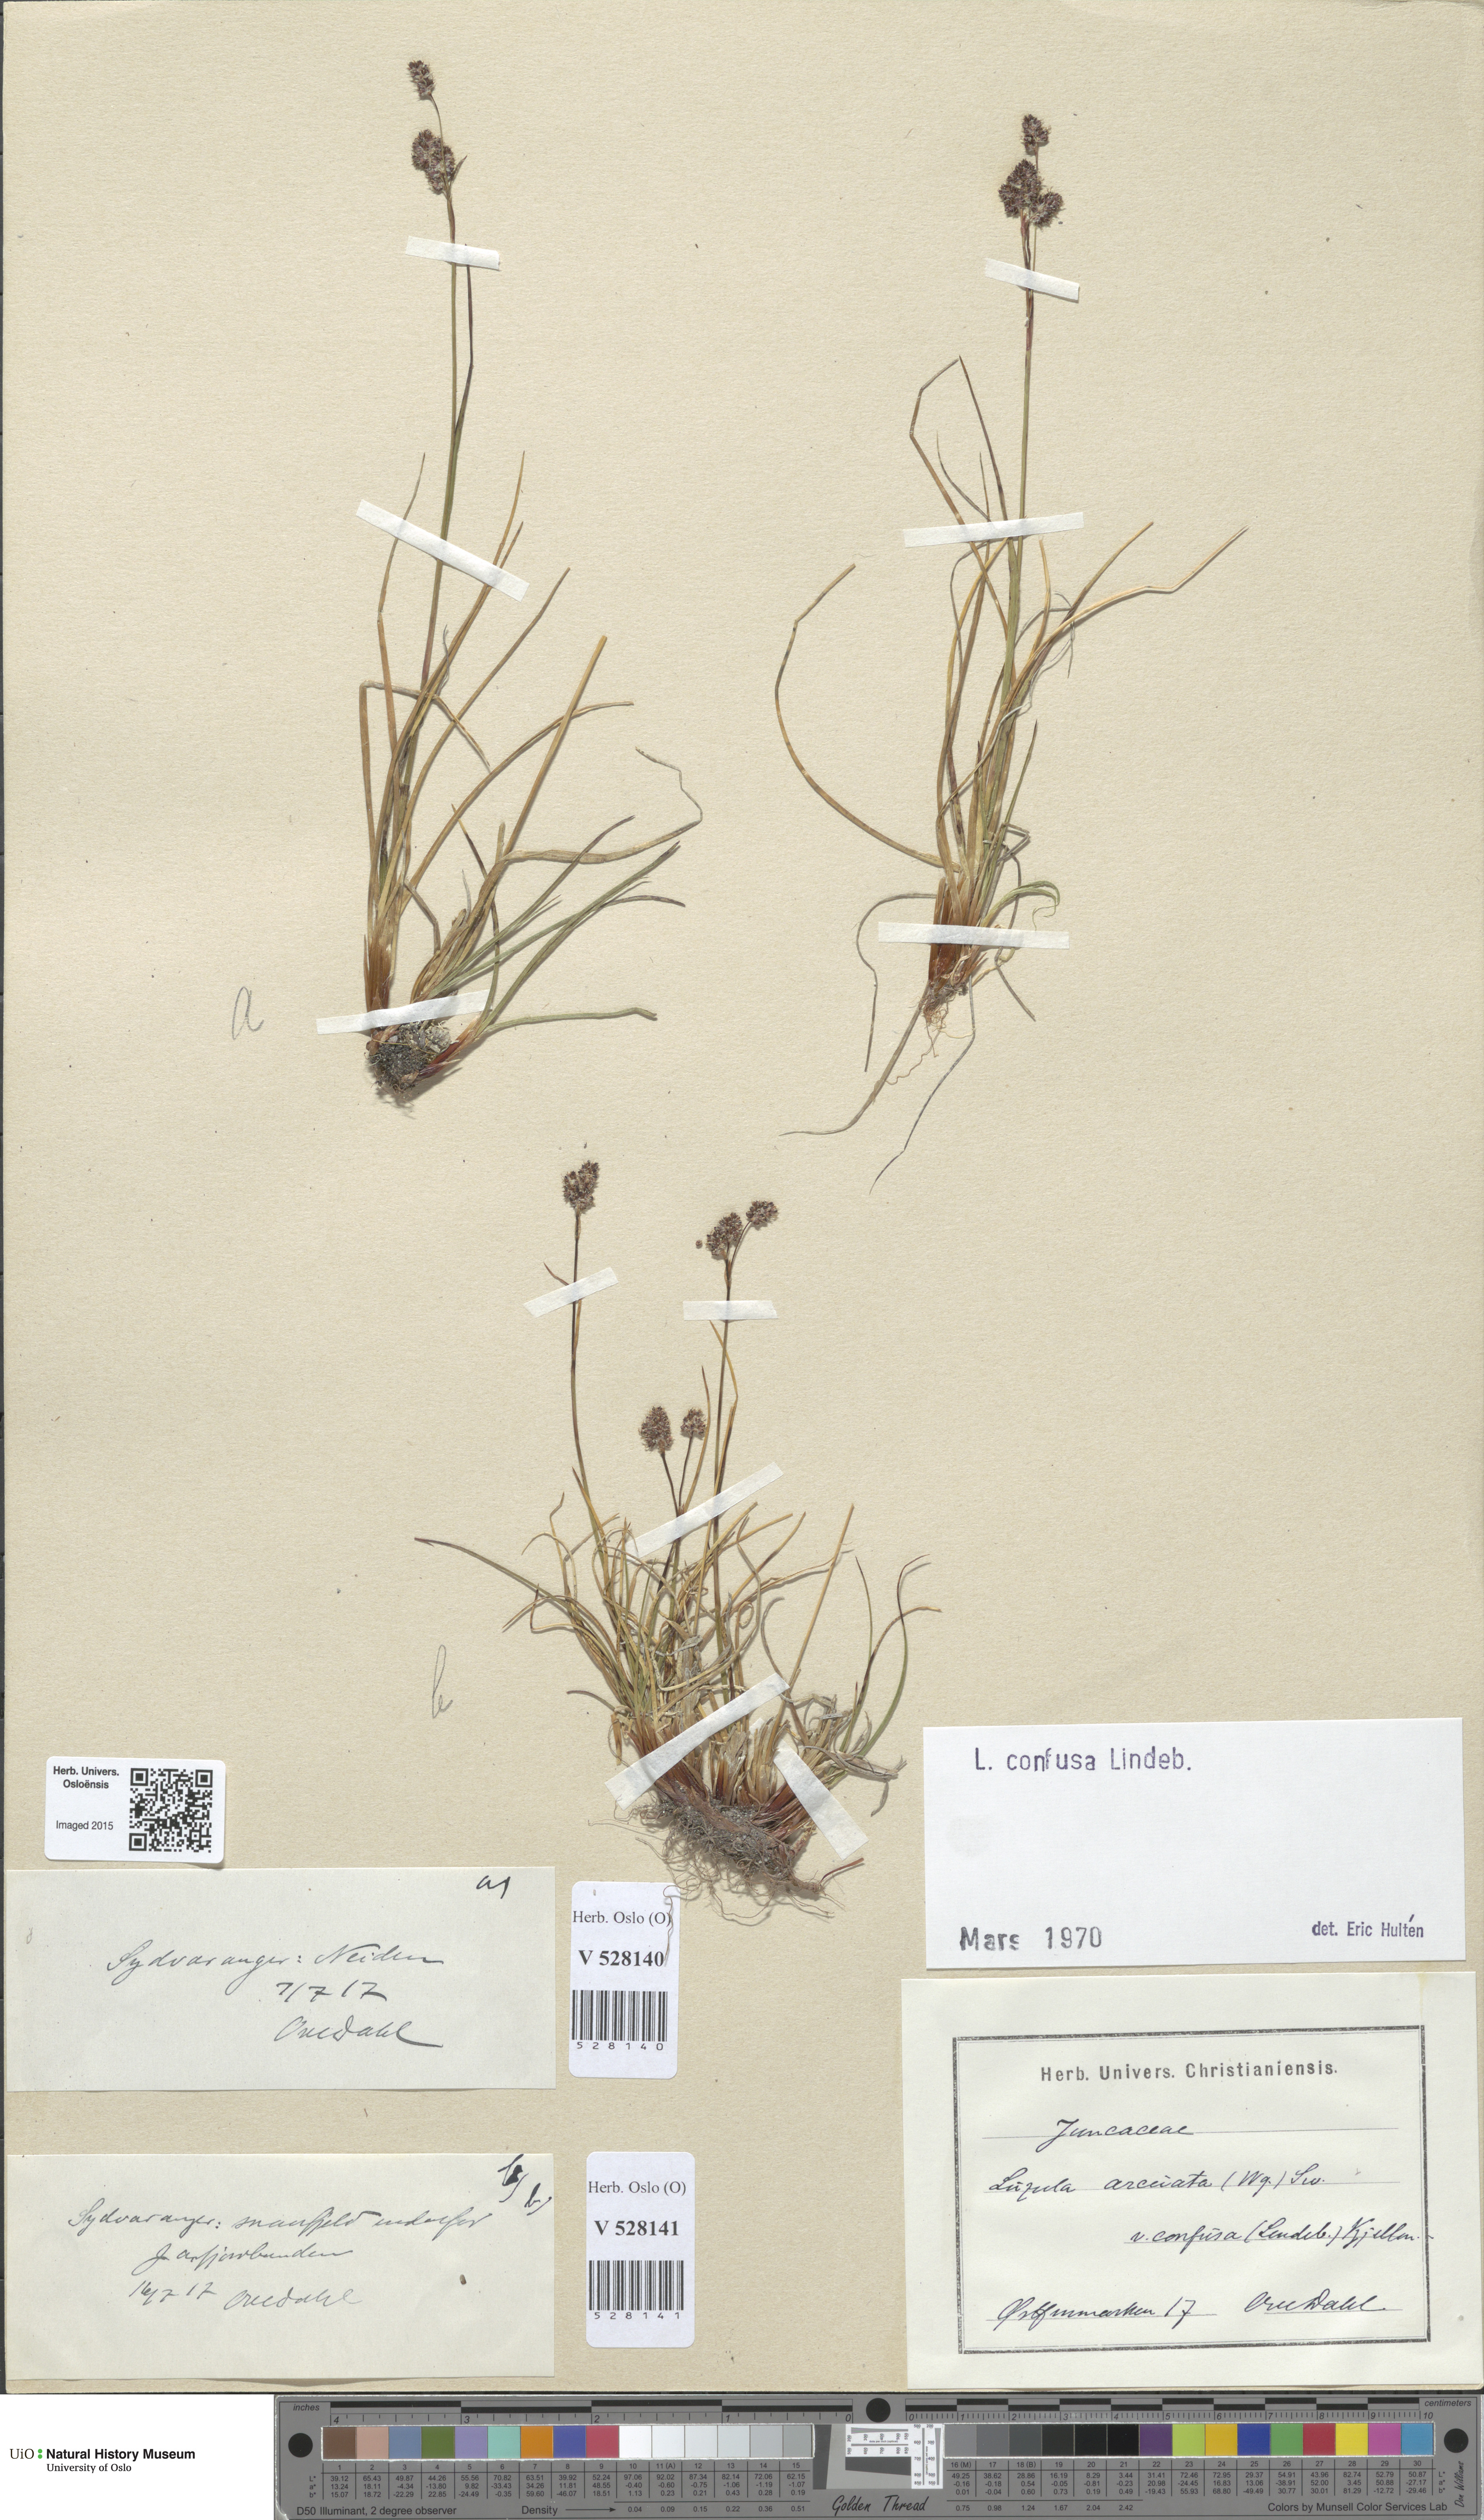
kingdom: Plantae
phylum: Tracheophyta
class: Liliopsida
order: Poales
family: Juncaceae
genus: Luzula
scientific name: Luzula confusa
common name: Northern wood rush
